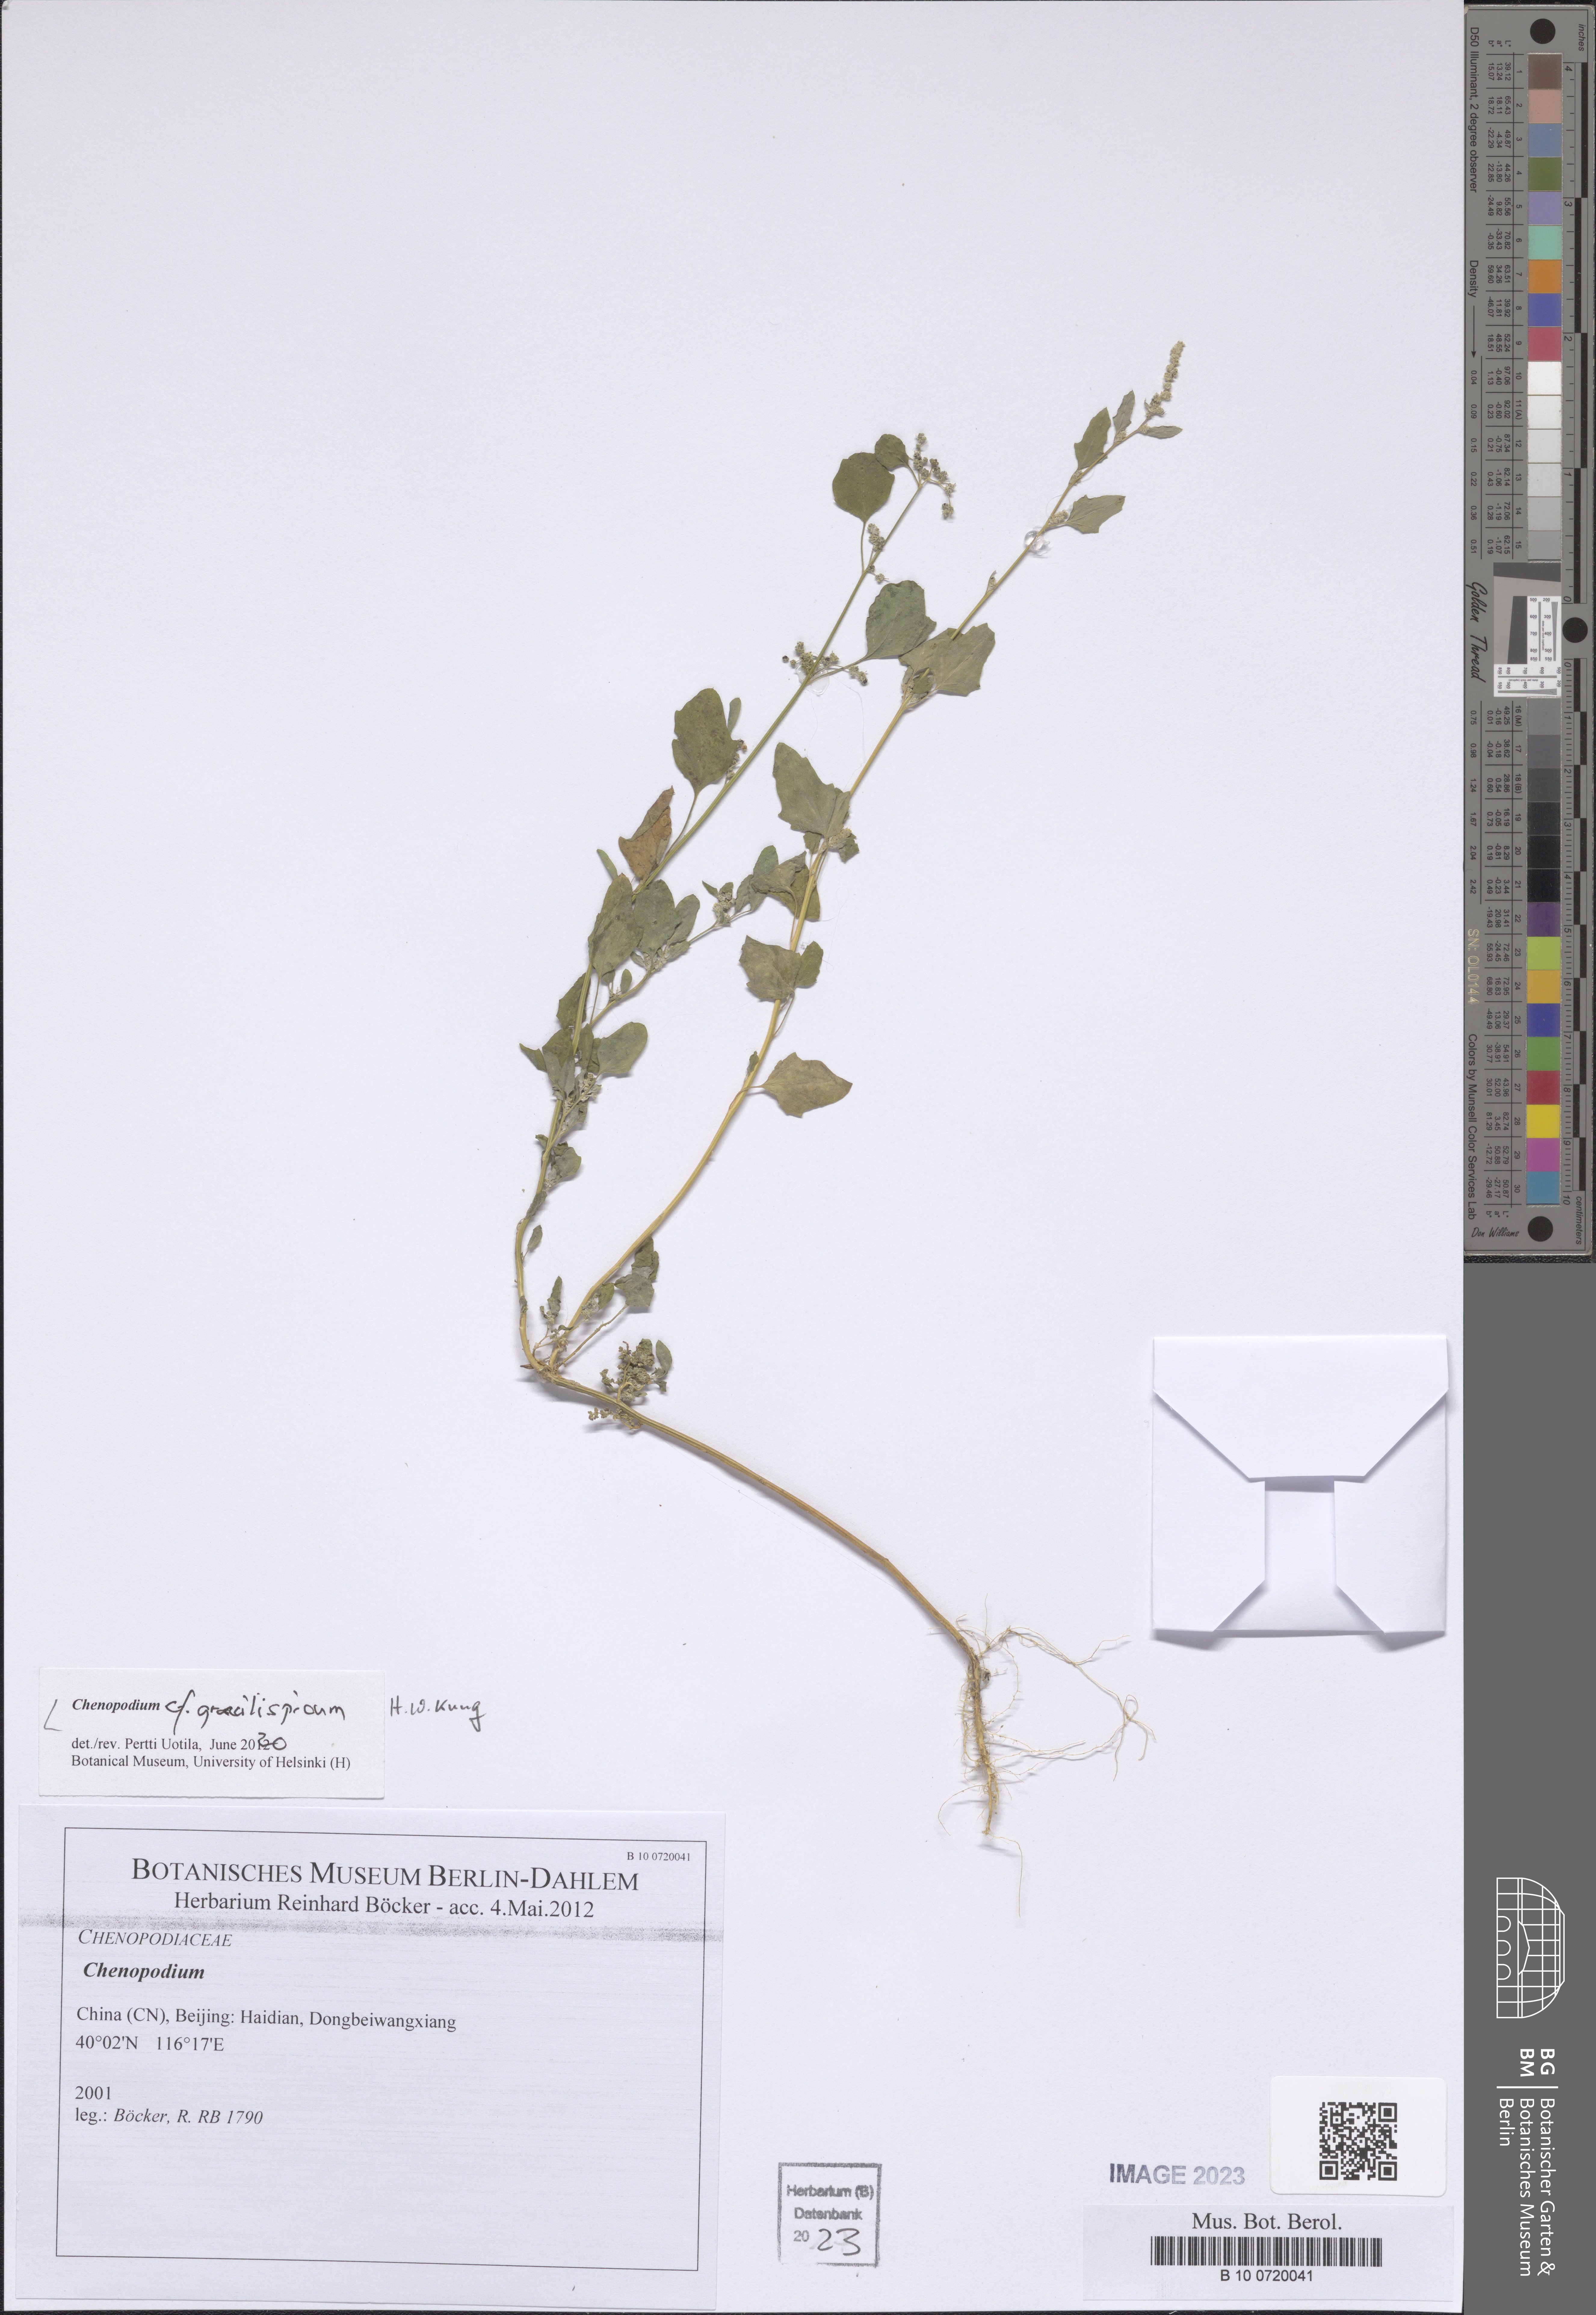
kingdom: Plantae
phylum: Tracheophyta
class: Magnoliopsida
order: Caryophyllales
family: Amaranthaceae
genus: Chenopodiastrum
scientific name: Chenopodiastrum gracilispicum
